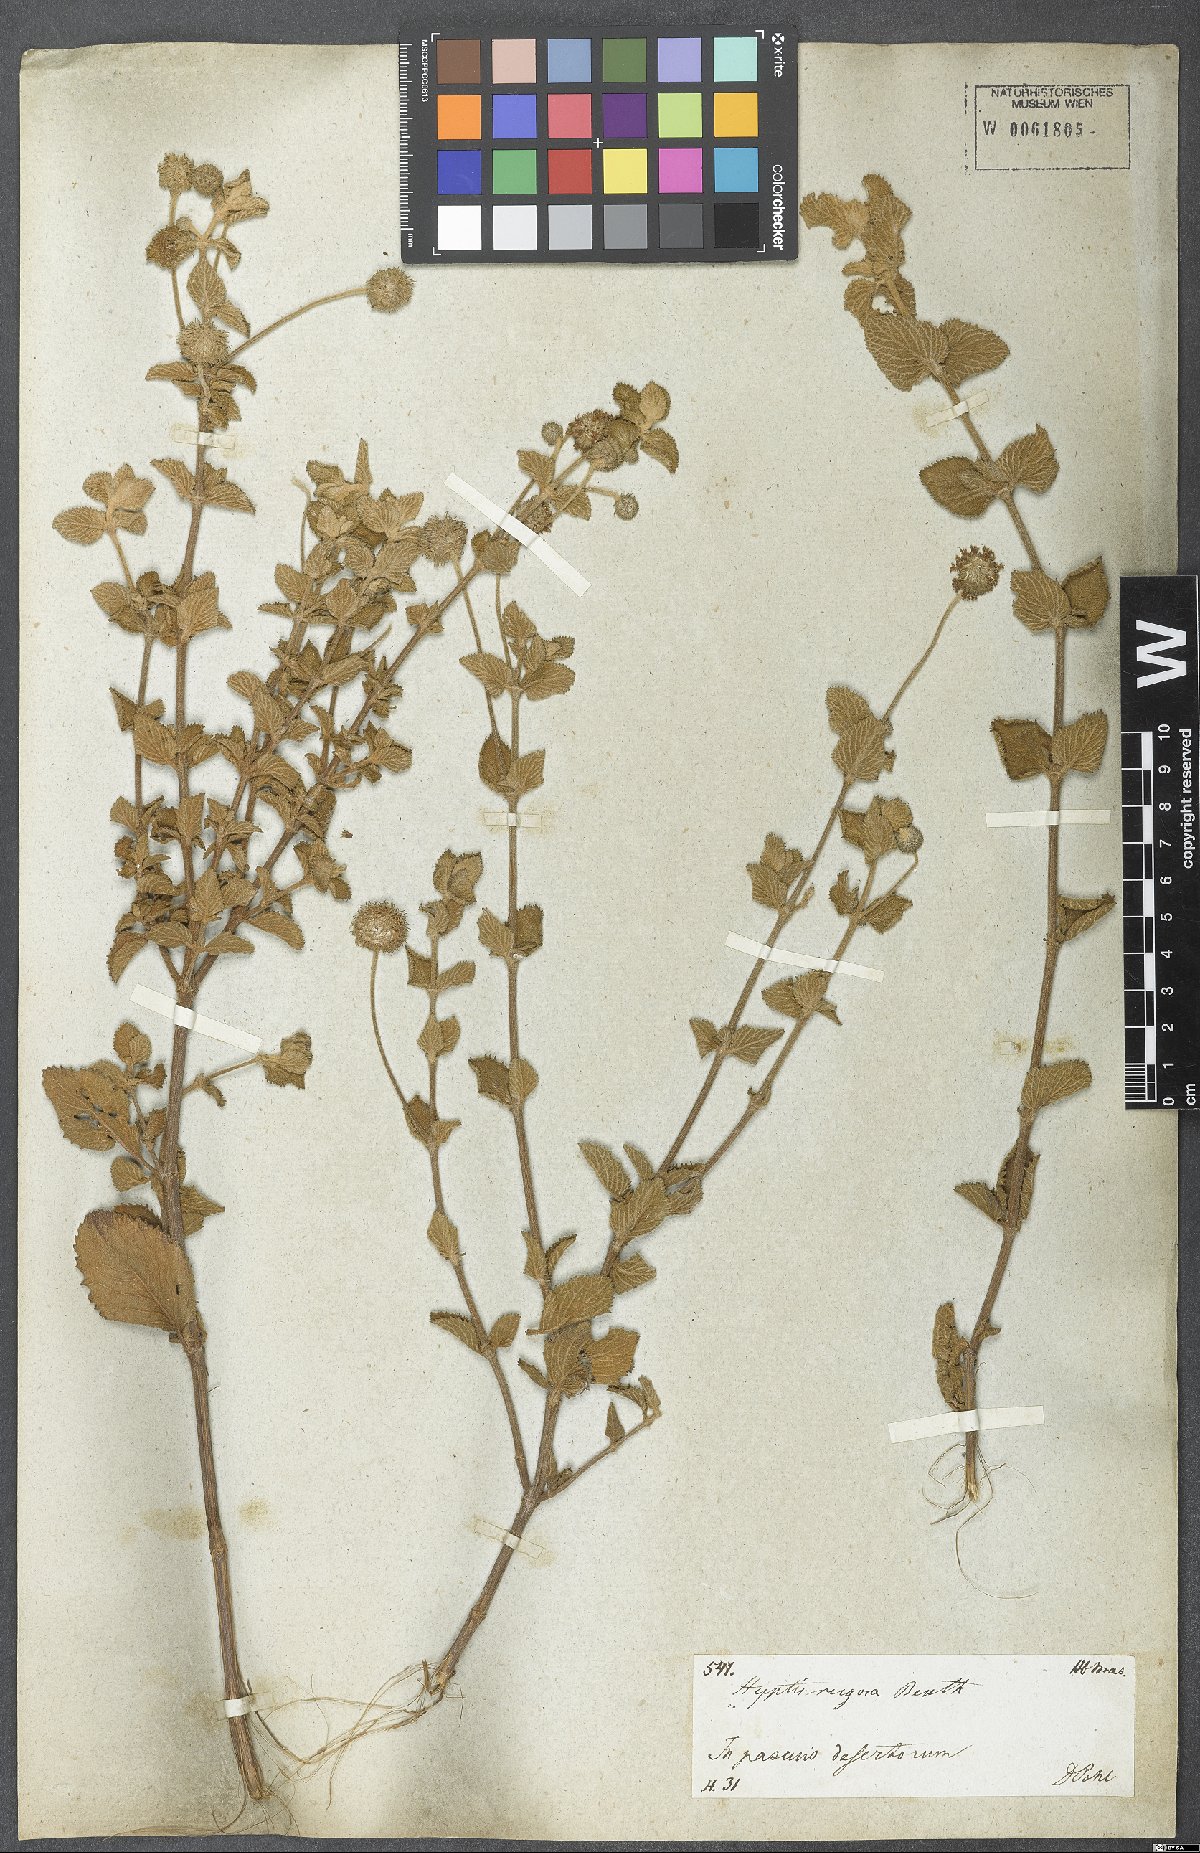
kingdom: Plantae
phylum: Tracheophyta
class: Magnoliopsida
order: Lamiales
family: Lamiaceae
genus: Cyanocephalus
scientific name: Cyanocephalus rugosus
